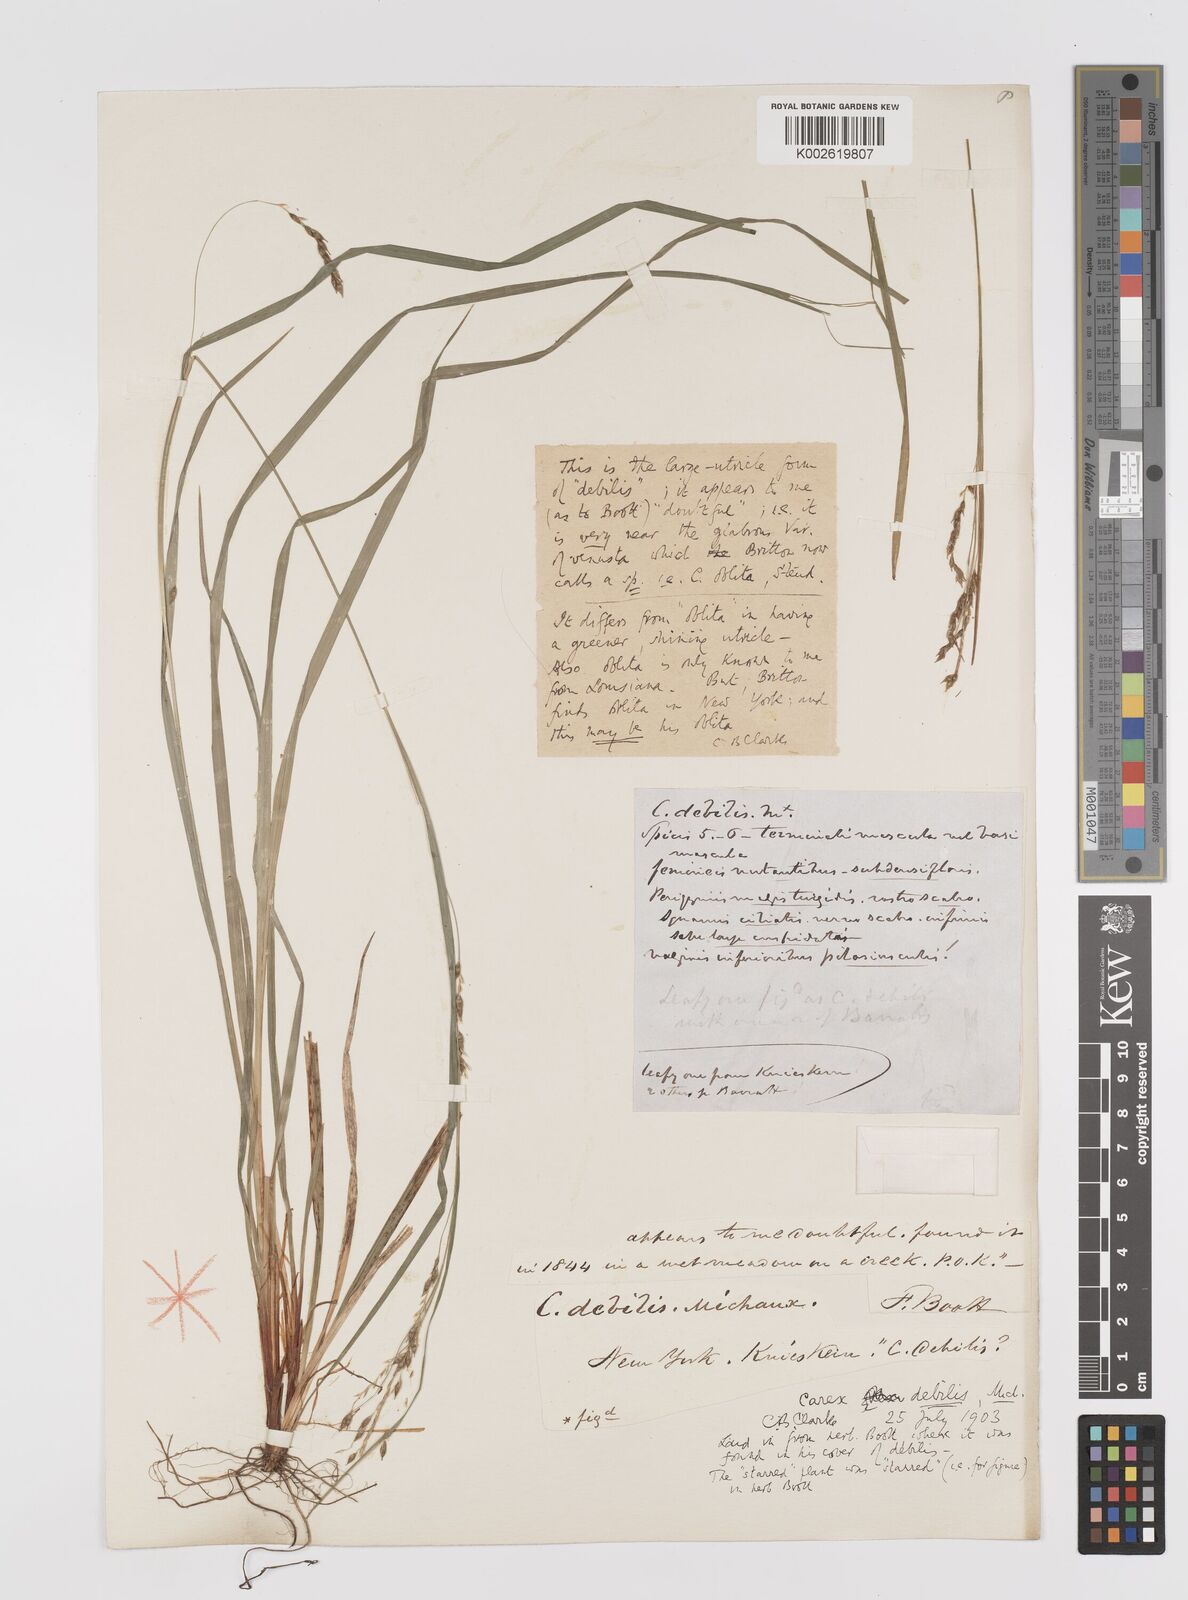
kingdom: Plantae
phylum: Tracheophyta
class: Liliopsida
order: Poales
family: Cyperaceae
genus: Carex
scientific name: Carex debilis
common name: White-edge sedge
